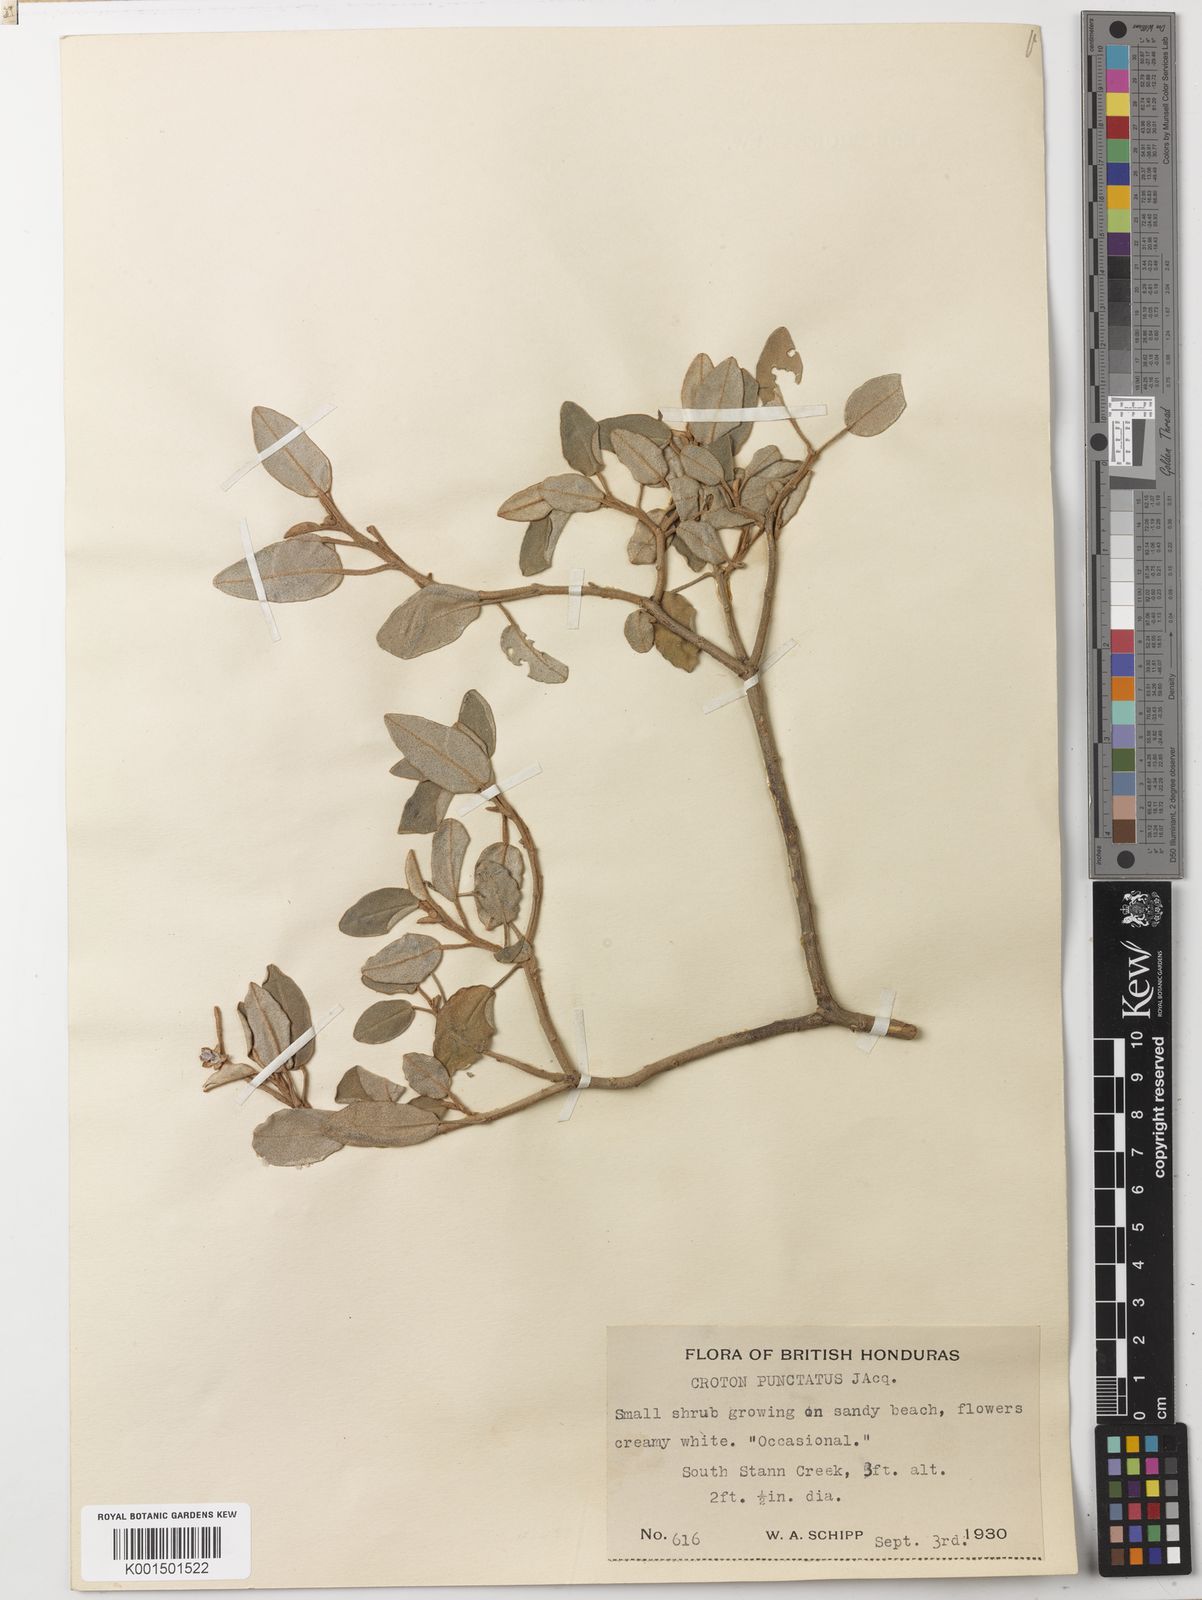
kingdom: Plantae
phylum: Tracheophyta
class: Magnoliopsida
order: Malpighiales
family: Euphorbiaceae
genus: Croton
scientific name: Croton punctatus
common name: Beach-tea
